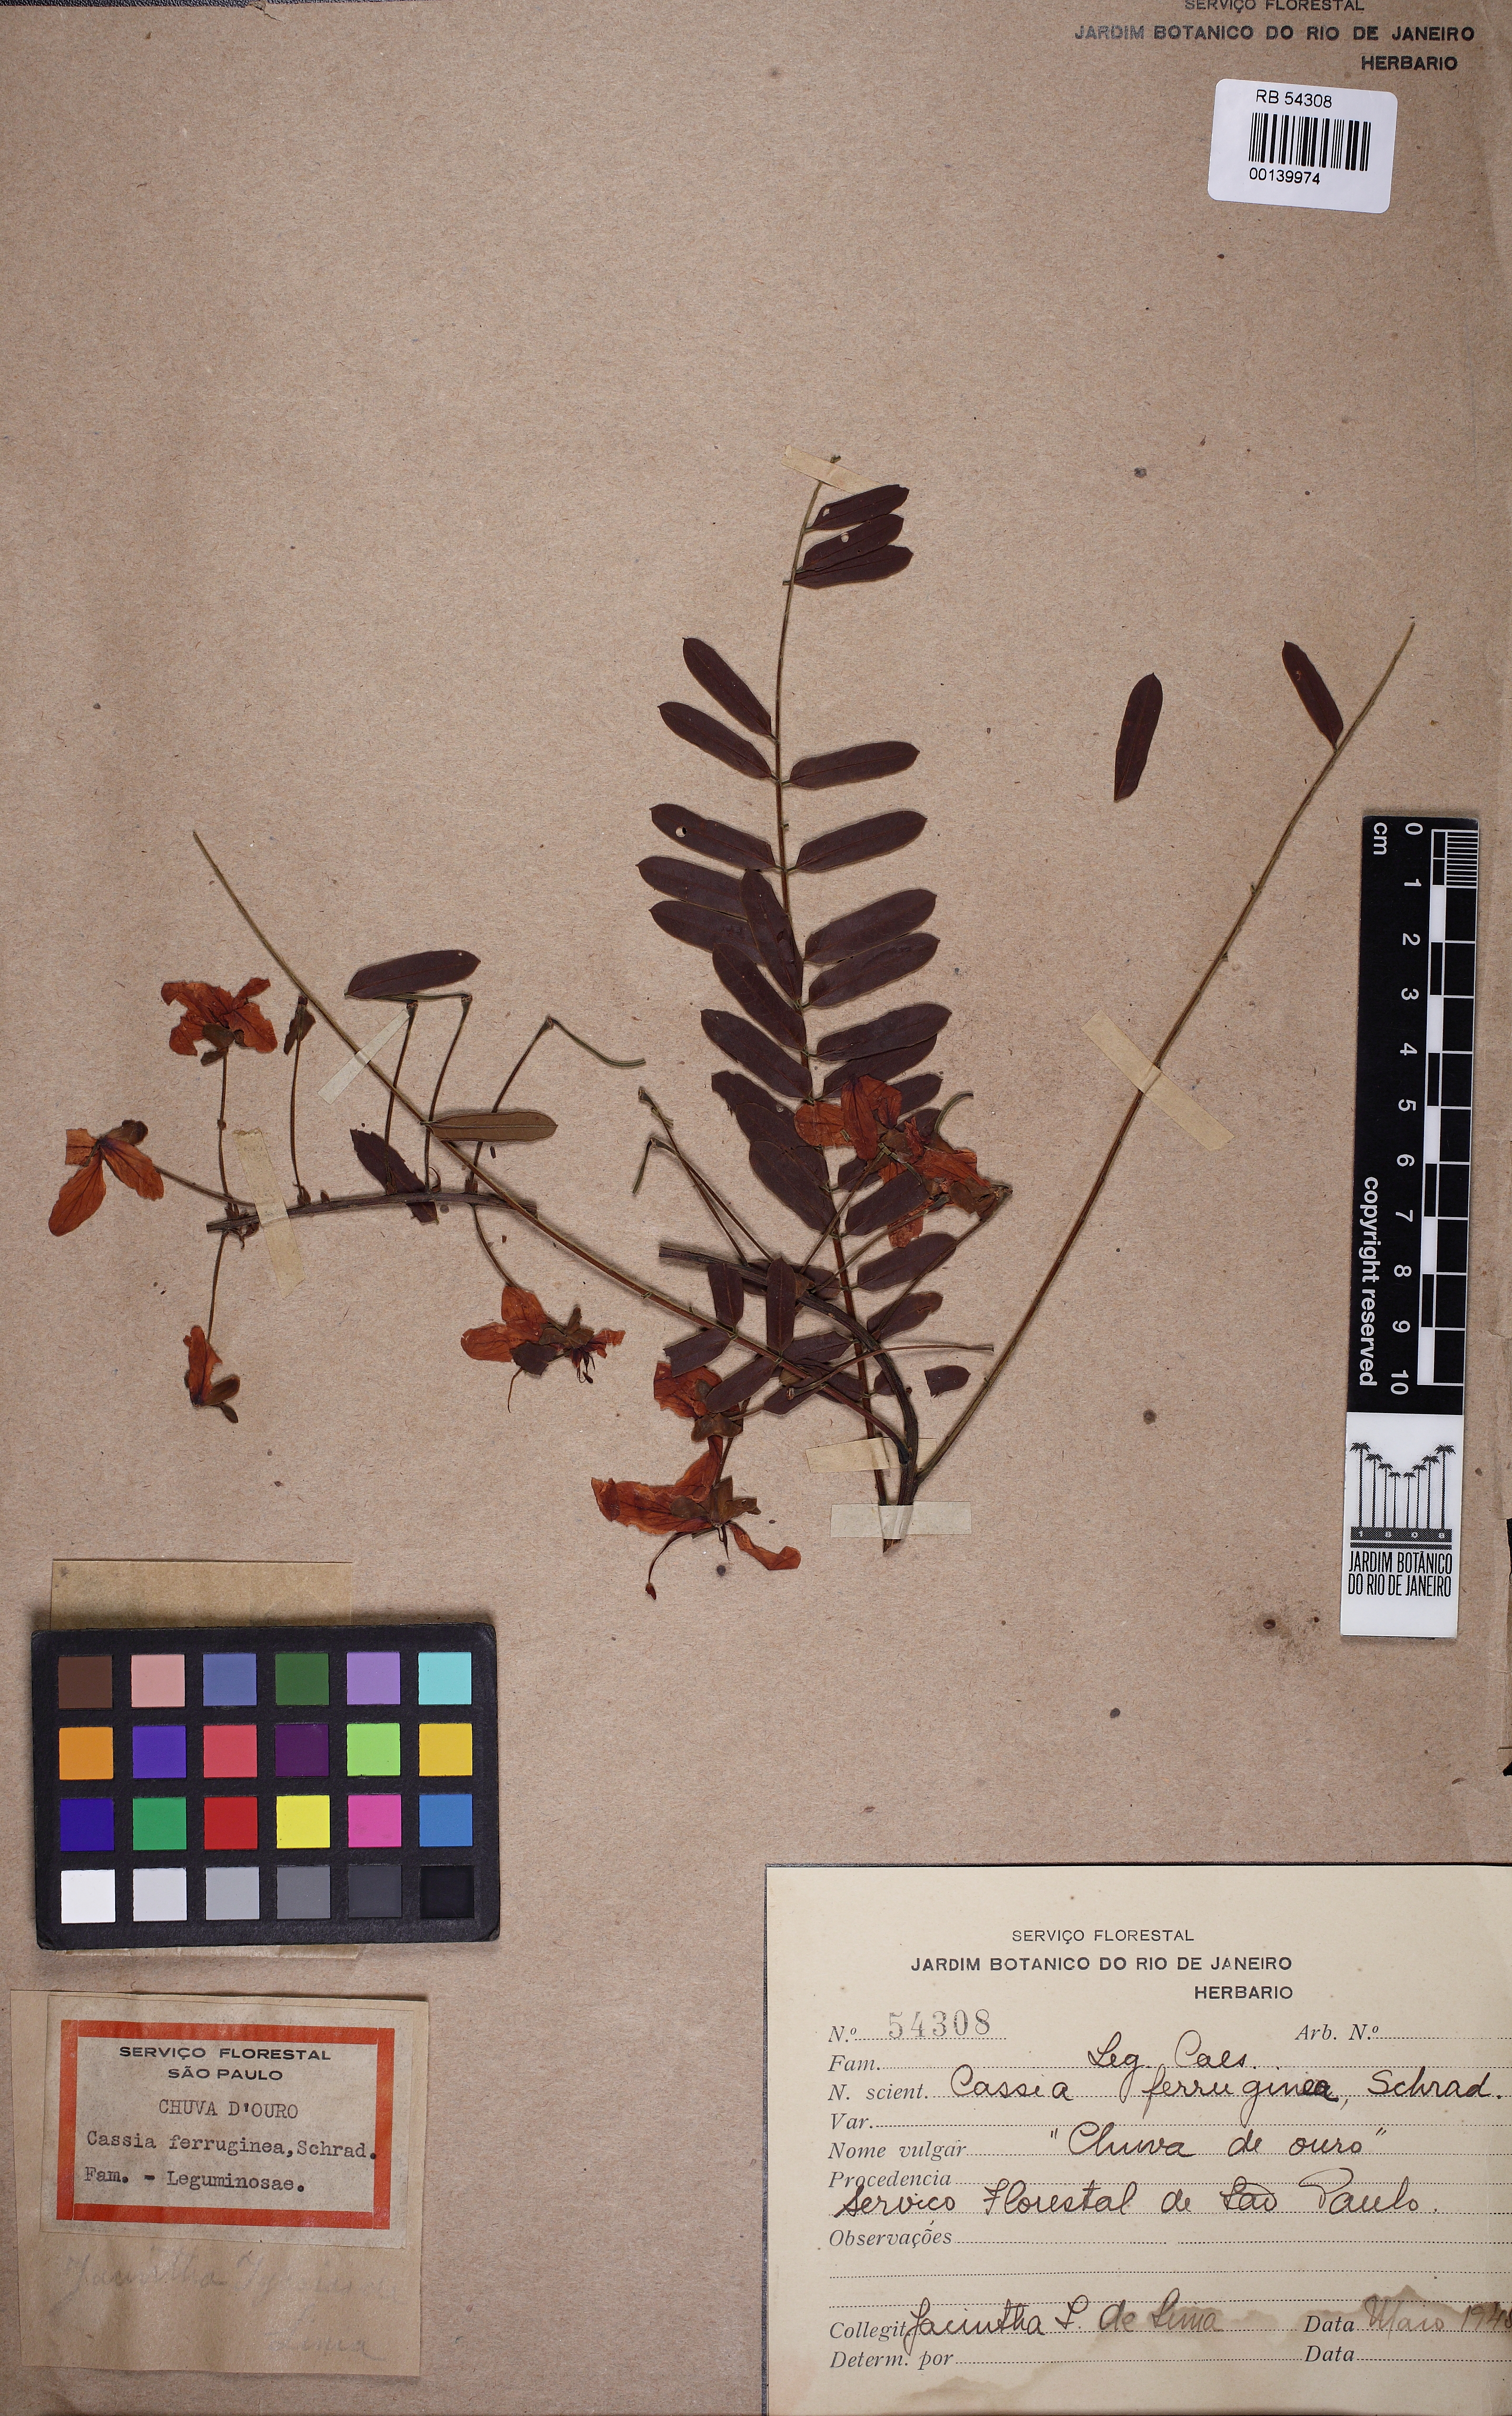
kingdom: Plantae
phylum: Tracheophyta
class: Magnoliopsida
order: Fabales
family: Fabaceae
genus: Cassia
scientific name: Cassia ferruginea
